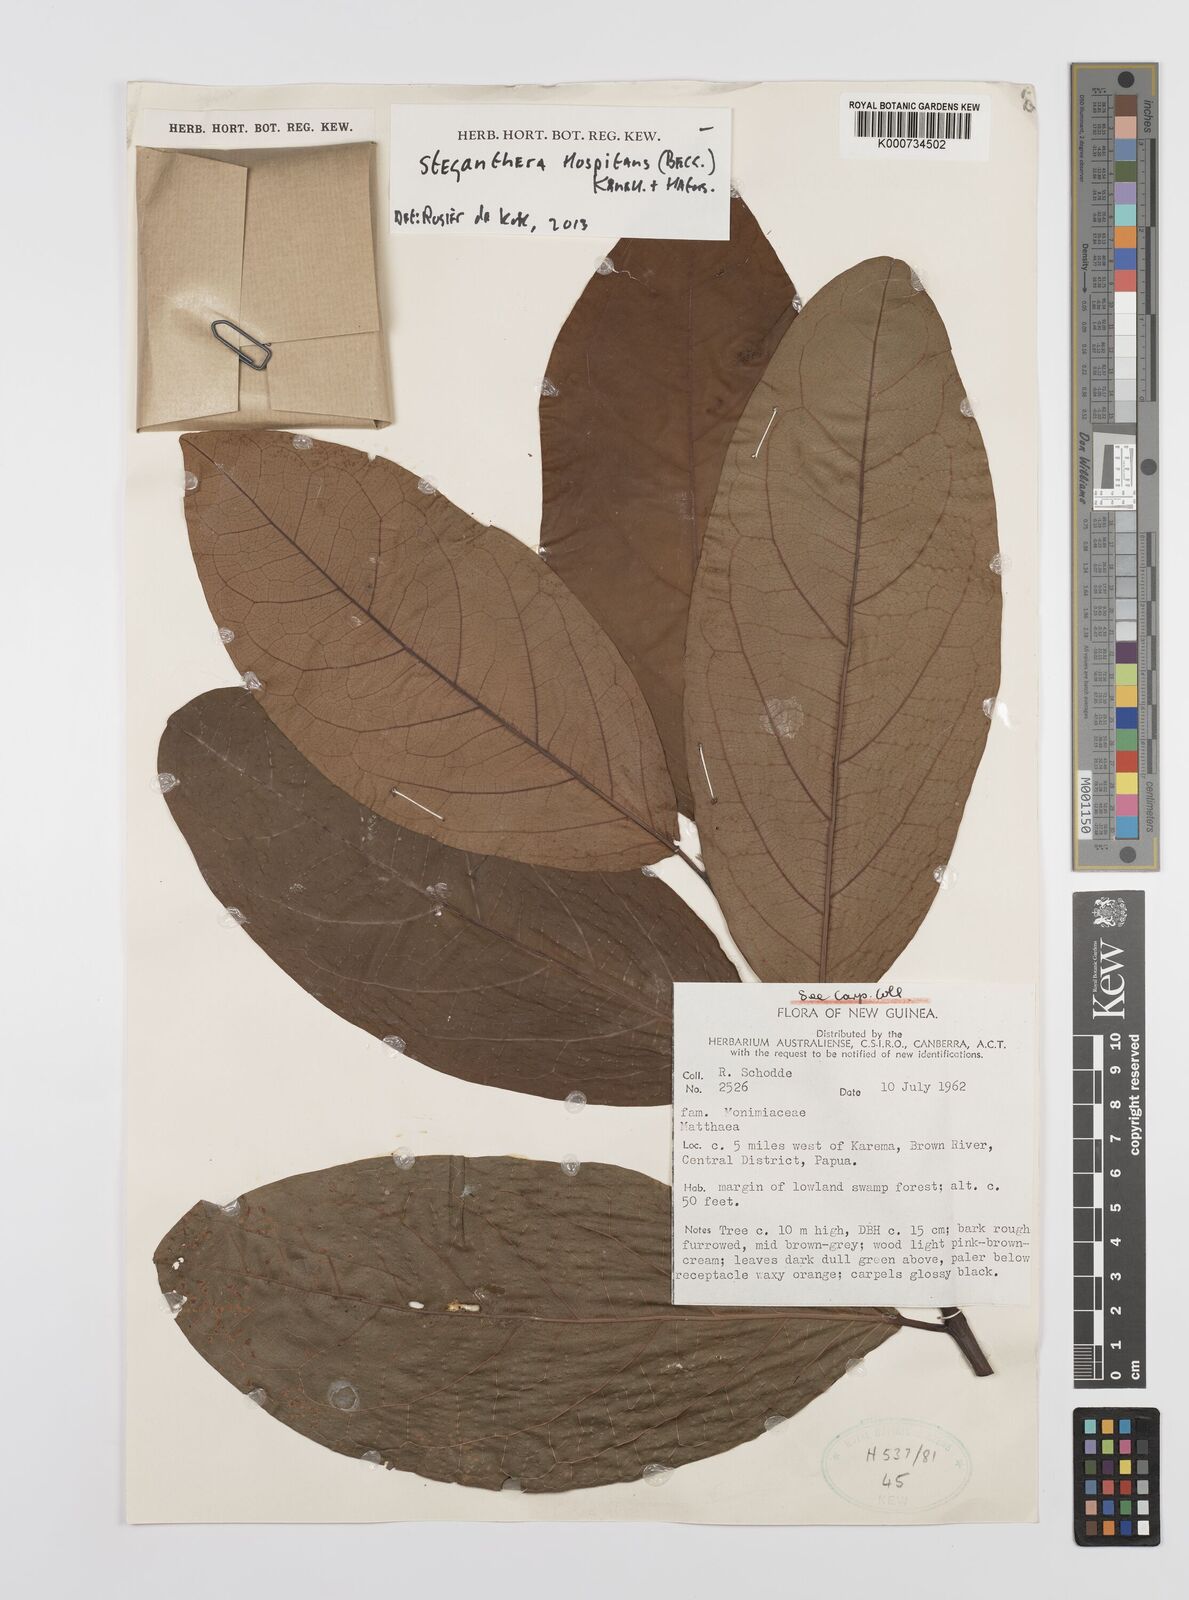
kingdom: Plantae
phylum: Tracheophyta
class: Magnoliopsida
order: Laurales
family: Monimiaceae
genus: Steganthera
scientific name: Steganthera hospitans
